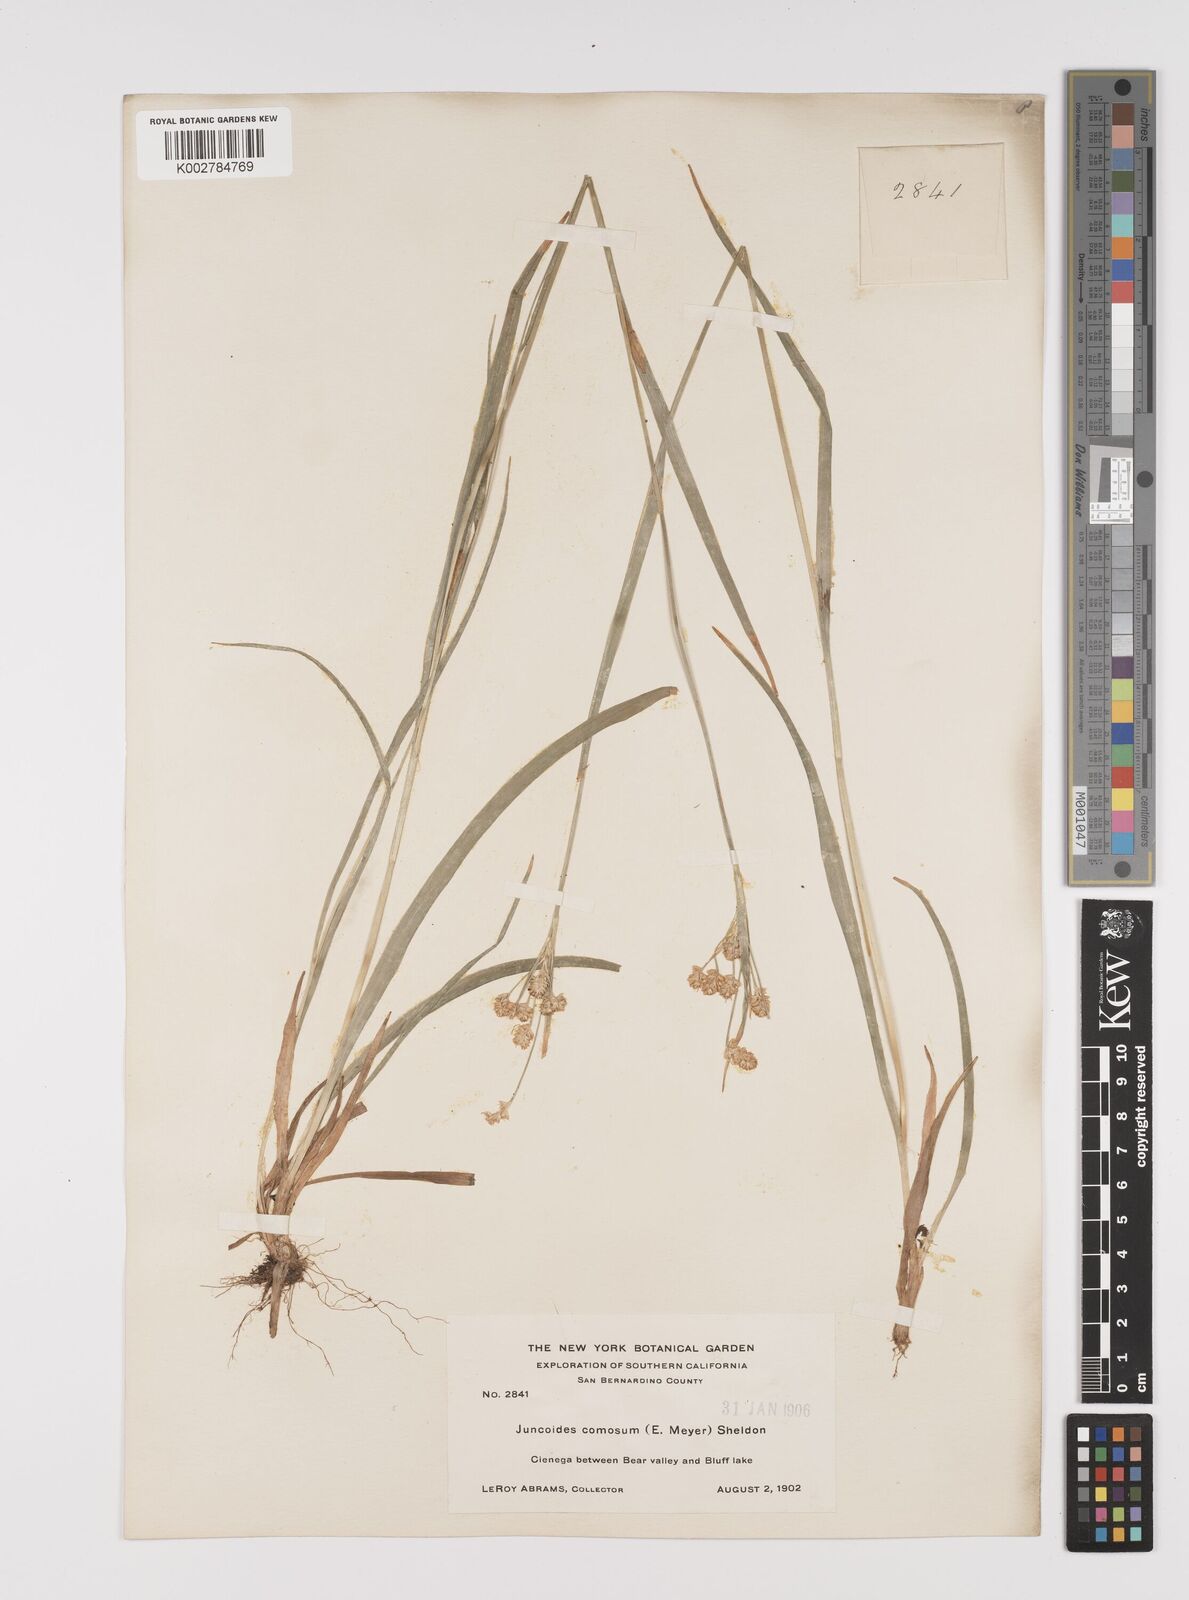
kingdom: Plantae
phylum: Tracheophyta
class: Liliopsida
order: Poales
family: Juncaceae
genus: Luzula
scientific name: Luzula comosa
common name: Pacific woodrush
